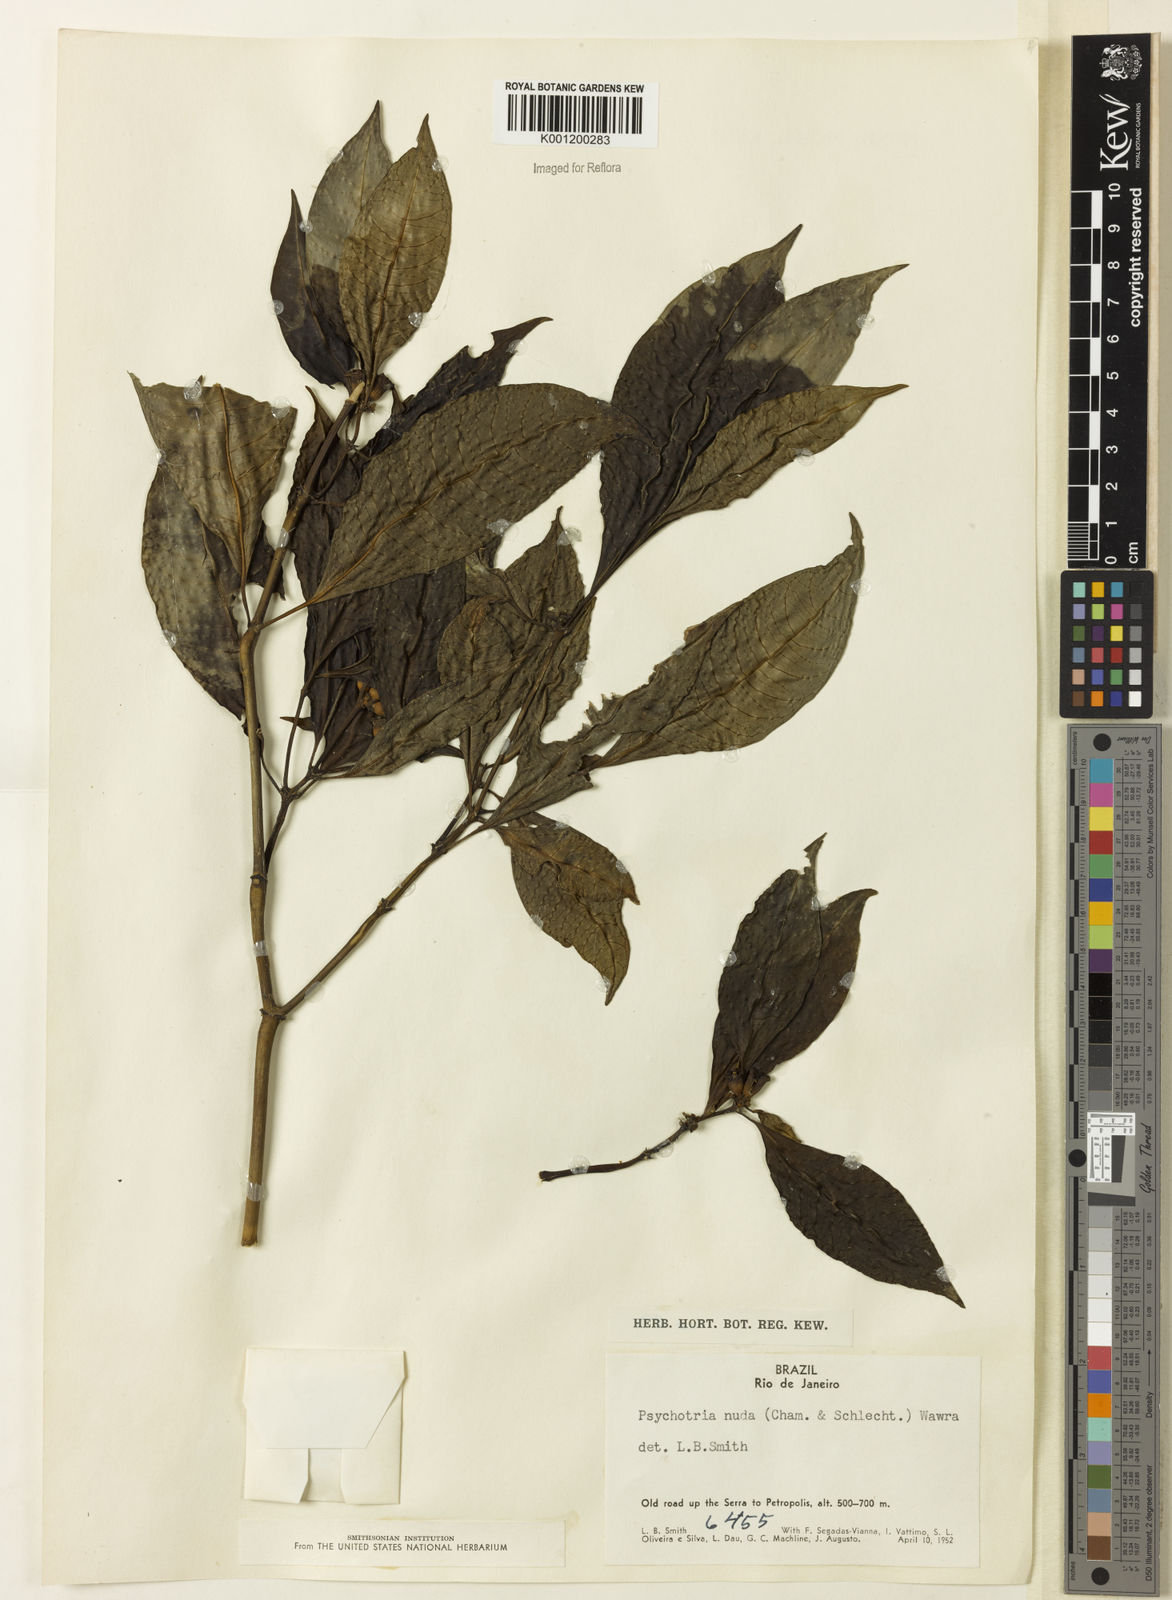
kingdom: Plantae
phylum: Tracheophyta
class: Magnoliopsida
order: Gentianales
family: Rubiaceae
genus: Psychotria
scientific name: Psychotria nuda
